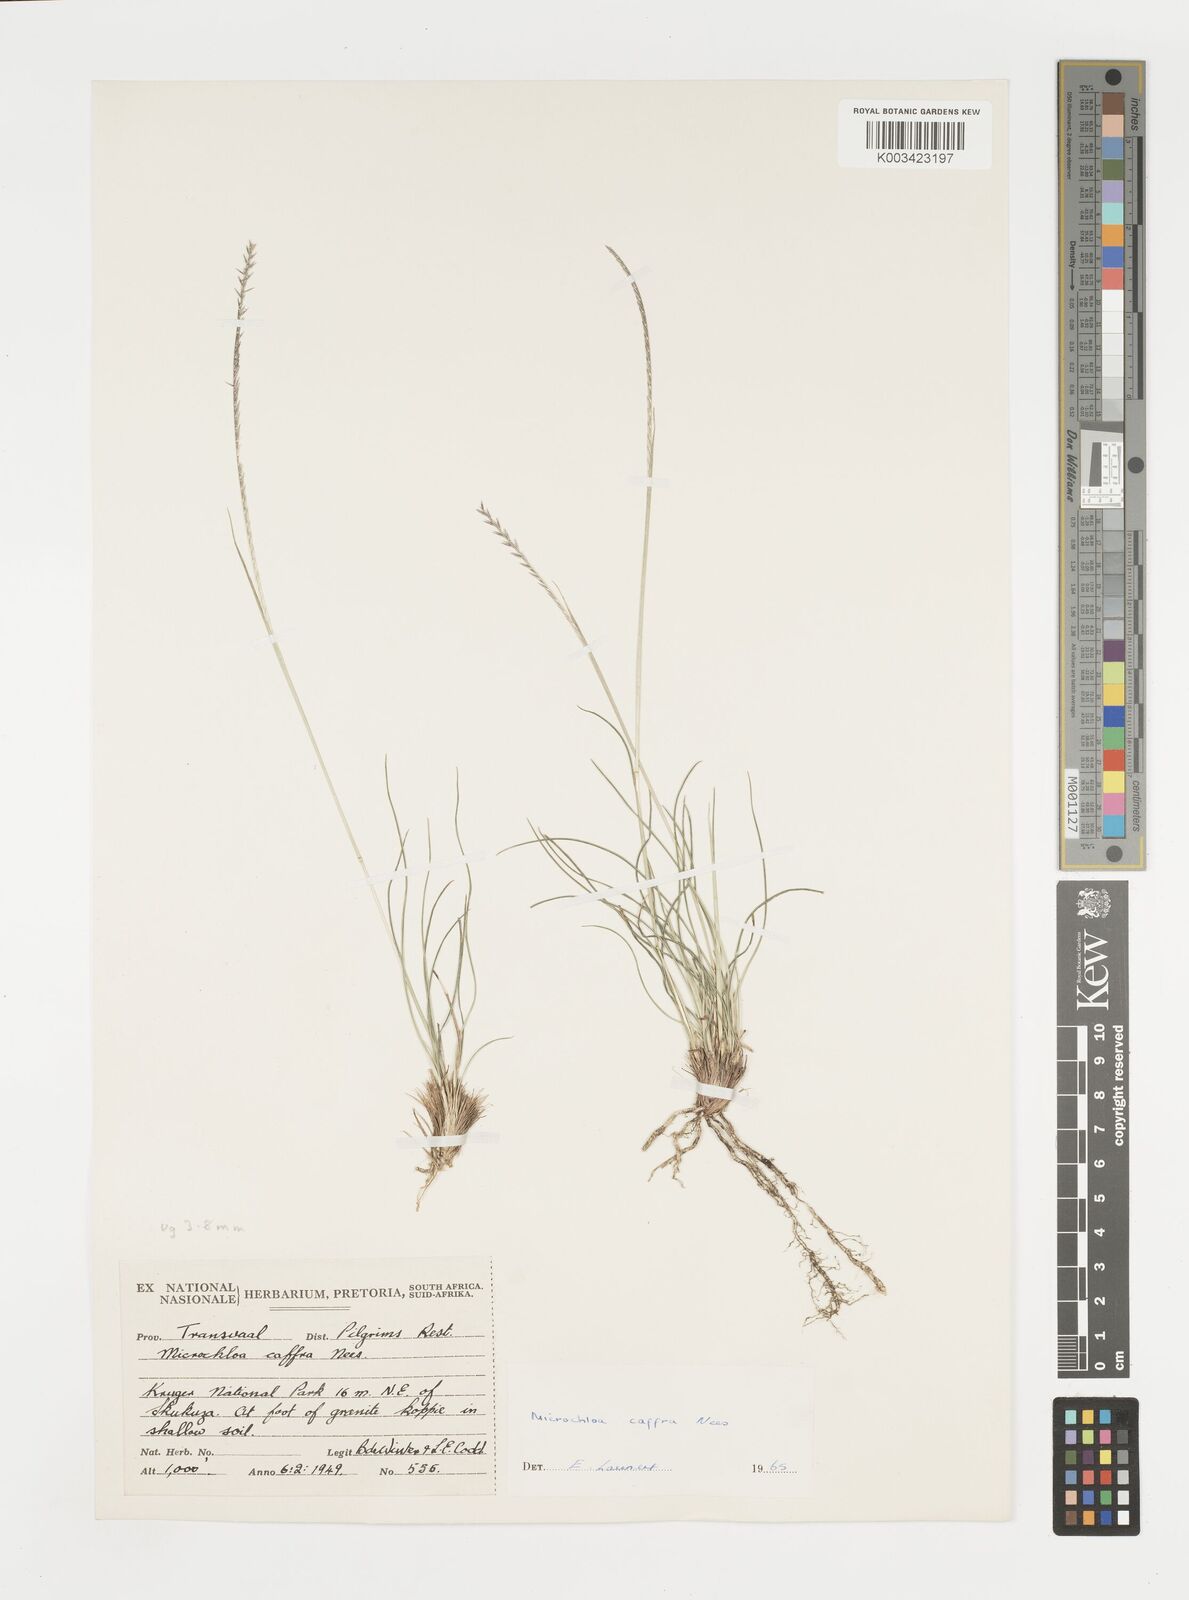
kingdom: Plantae
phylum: Tracheophyta
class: Liliopsida
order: Poales
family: Poaceae
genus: Microchloa
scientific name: Microchloa caffra
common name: Pincushion grass
